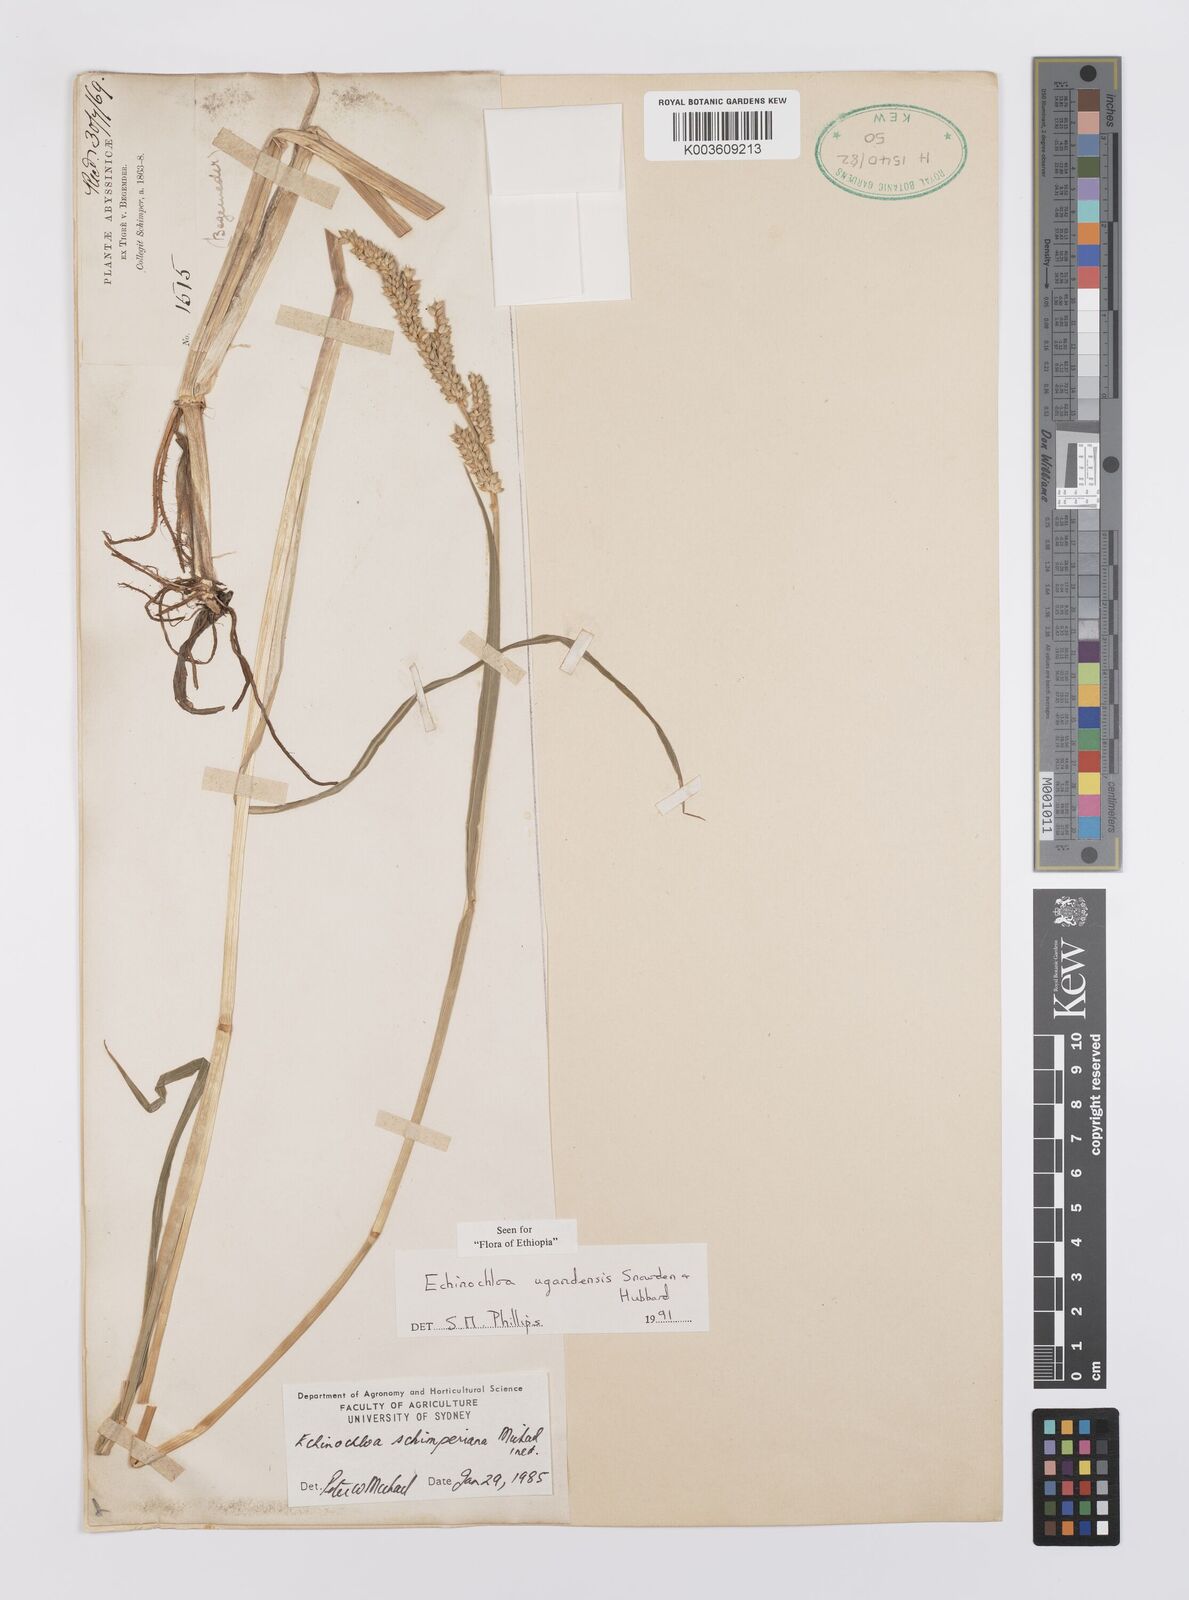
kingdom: Plantae
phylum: Tracheophyta
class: Liliopsida
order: Poales
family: Poaceae
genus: Echinochloa
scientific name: Echinochloa ugandensis
